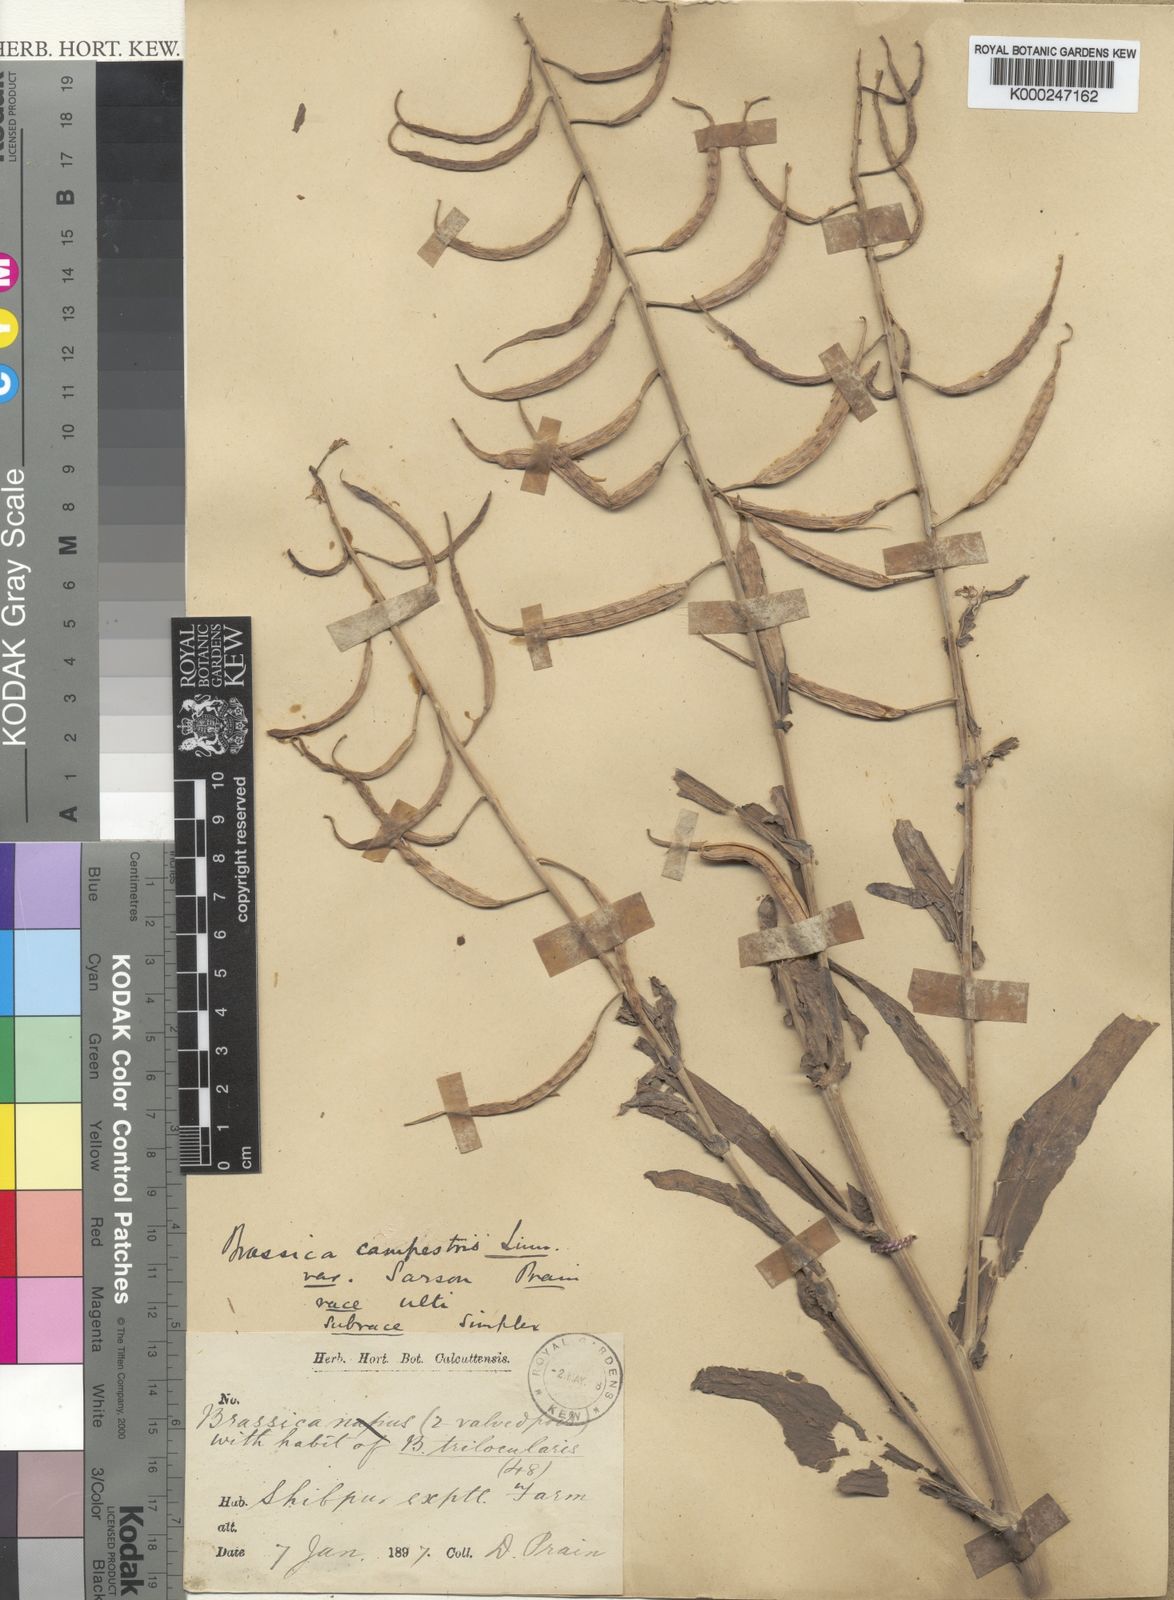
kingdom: Plantae
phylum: Tracheophyta
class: Magnoliopsida
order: Brassicales
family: Brassicaceae
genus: Brassica
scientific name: Brassica rapa
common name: Field mustard
